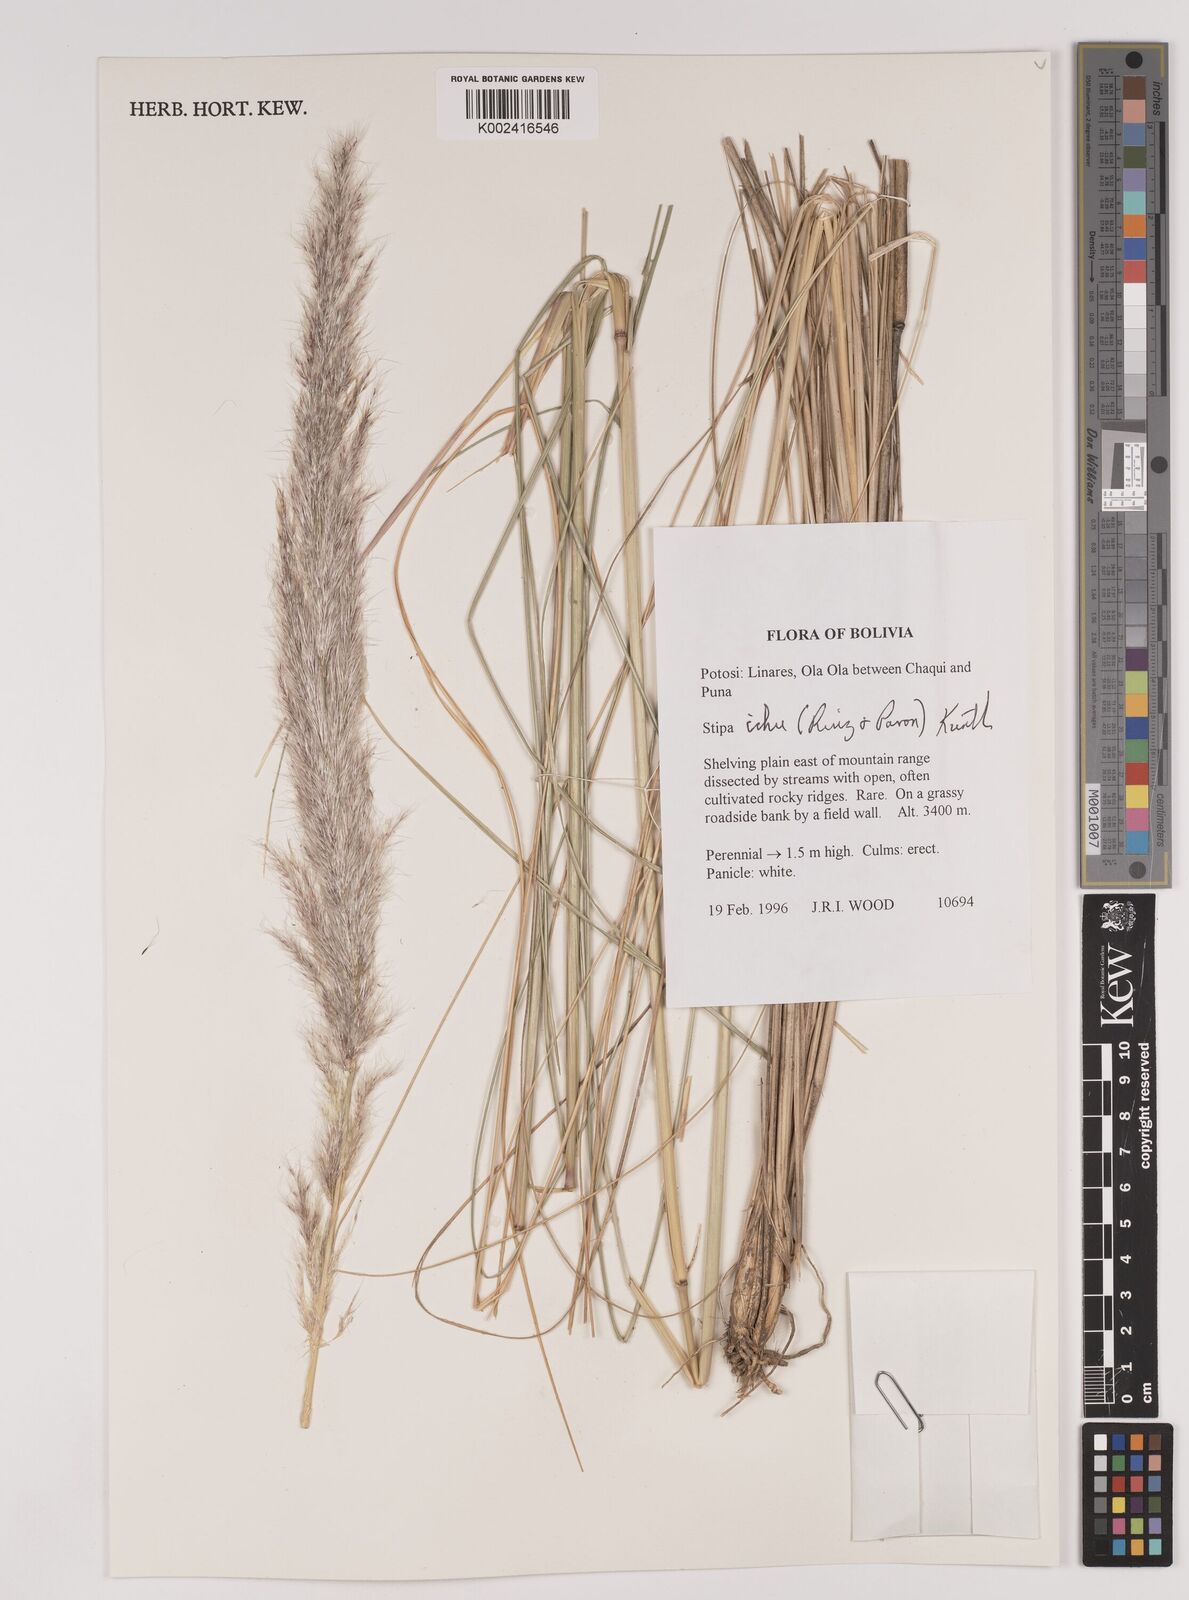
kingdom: Plantae
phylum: Tracheophyta
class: Liliopsida
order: Poales
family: Poaceae
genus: Jarava
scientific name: Jarava ichu
